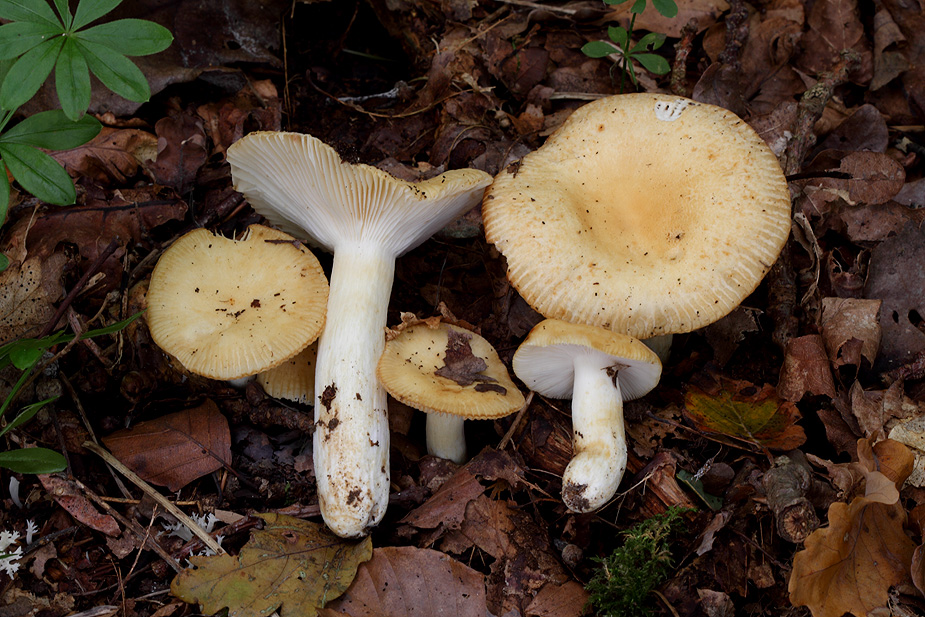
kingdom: Fungi
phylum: Basidiomycota
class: Agaricomycetes
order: Russulales
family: Russulaceae
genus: Russula
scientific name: Russula farinipes
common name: gul kam-skørhat
